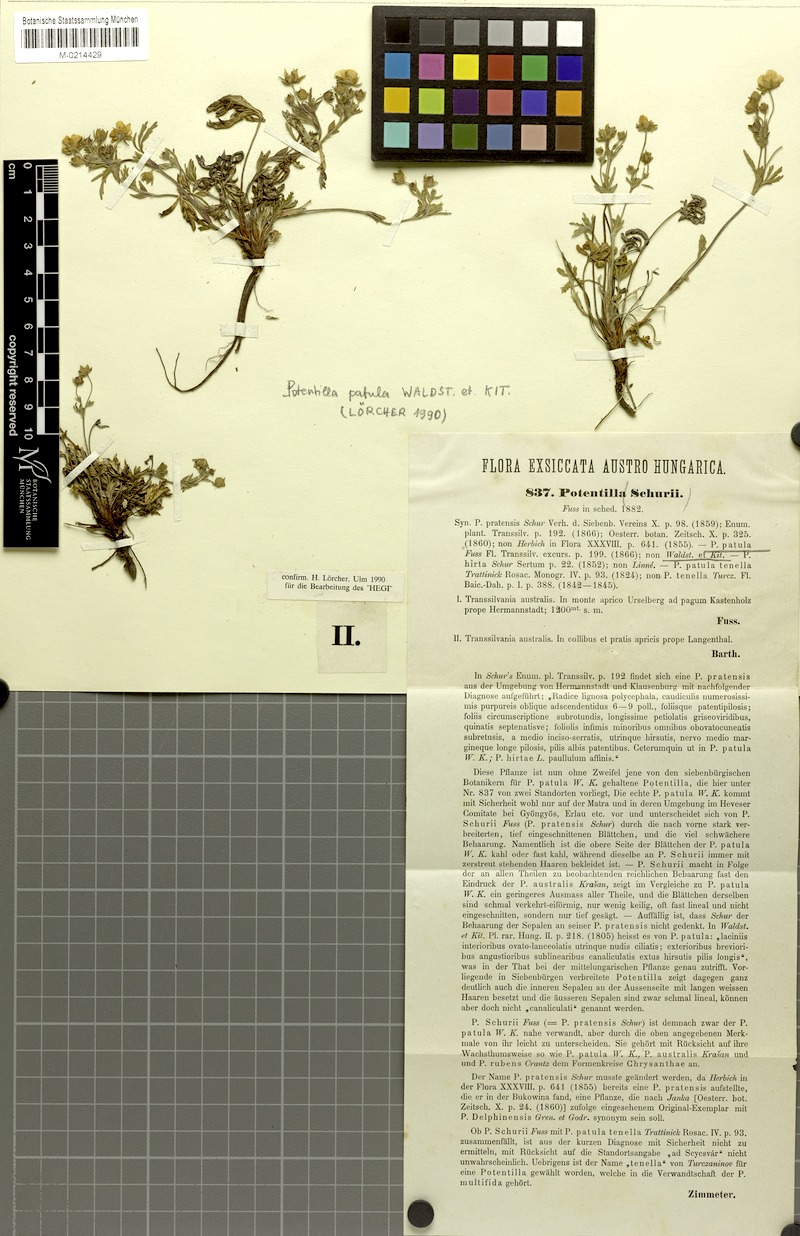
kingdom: Plantae
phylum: Tracheophyta
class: Magnoliopsida
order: Rosales
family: Rosaceae
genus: Potentilla
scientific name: Potentilla patula
